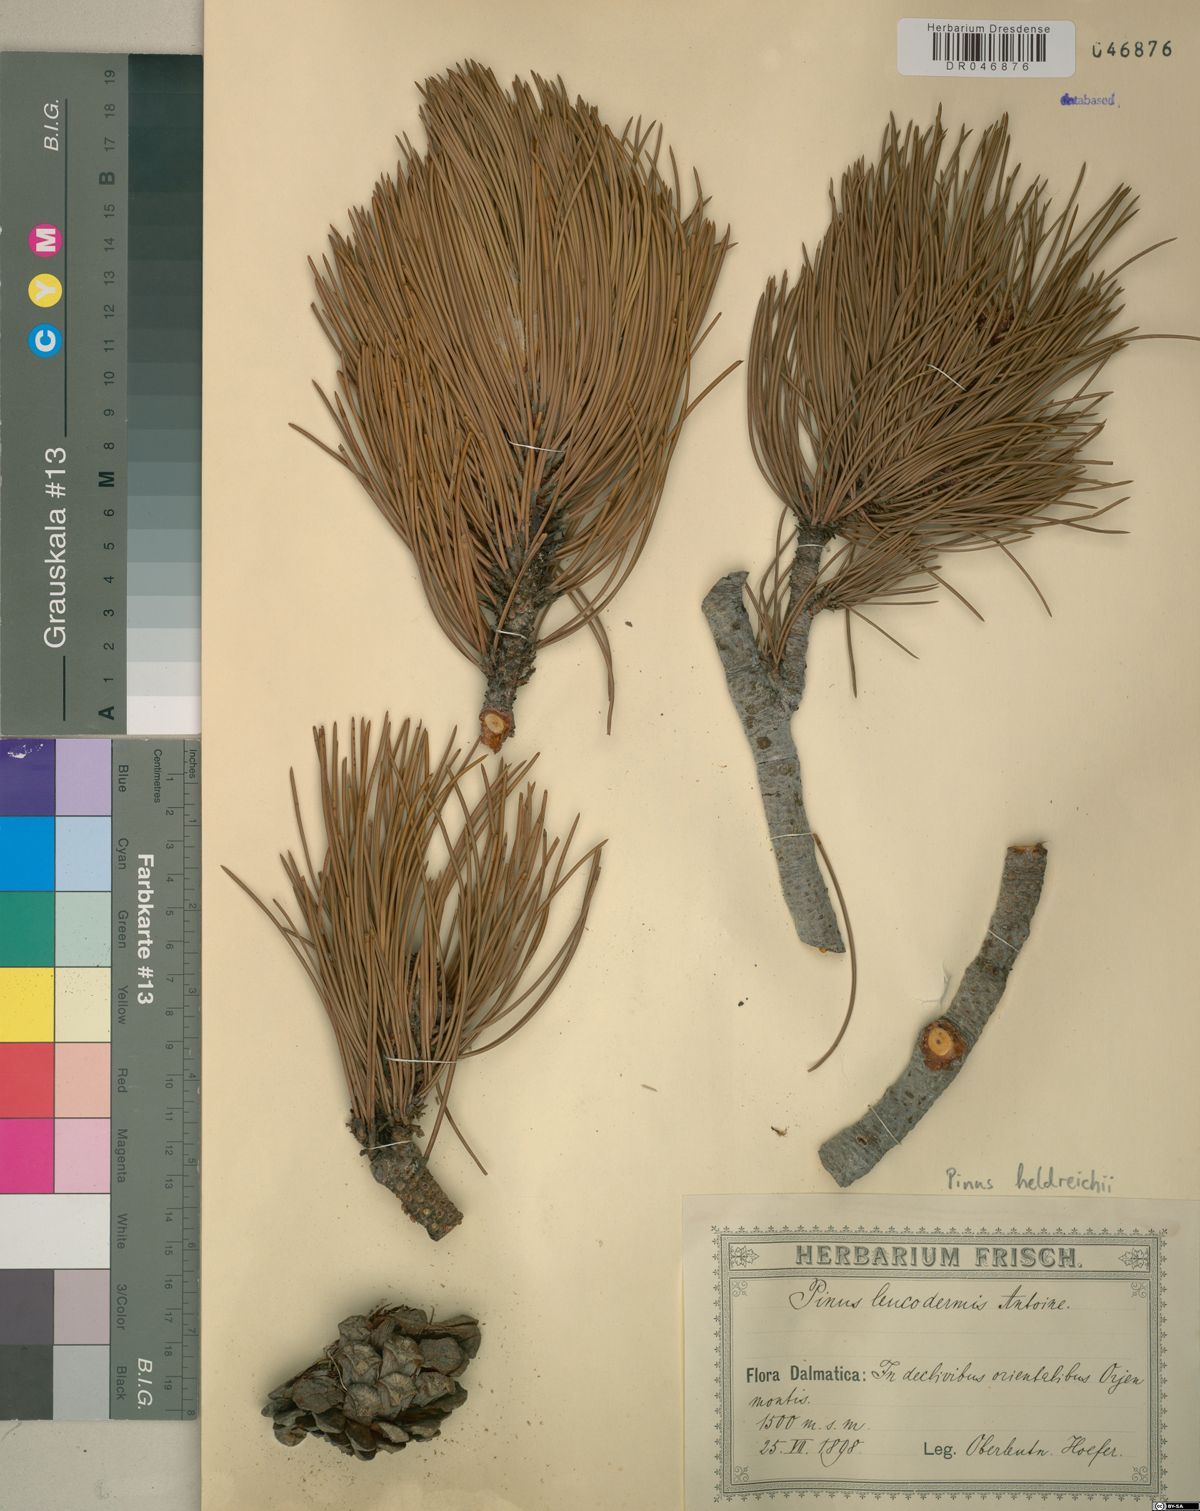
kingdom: Plantae
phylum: Tracheophyta
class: Pinopsida
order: Pinales
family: Pinaceae
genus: Pinus
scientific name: Pinus heldreichii
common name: Bosnian pine
